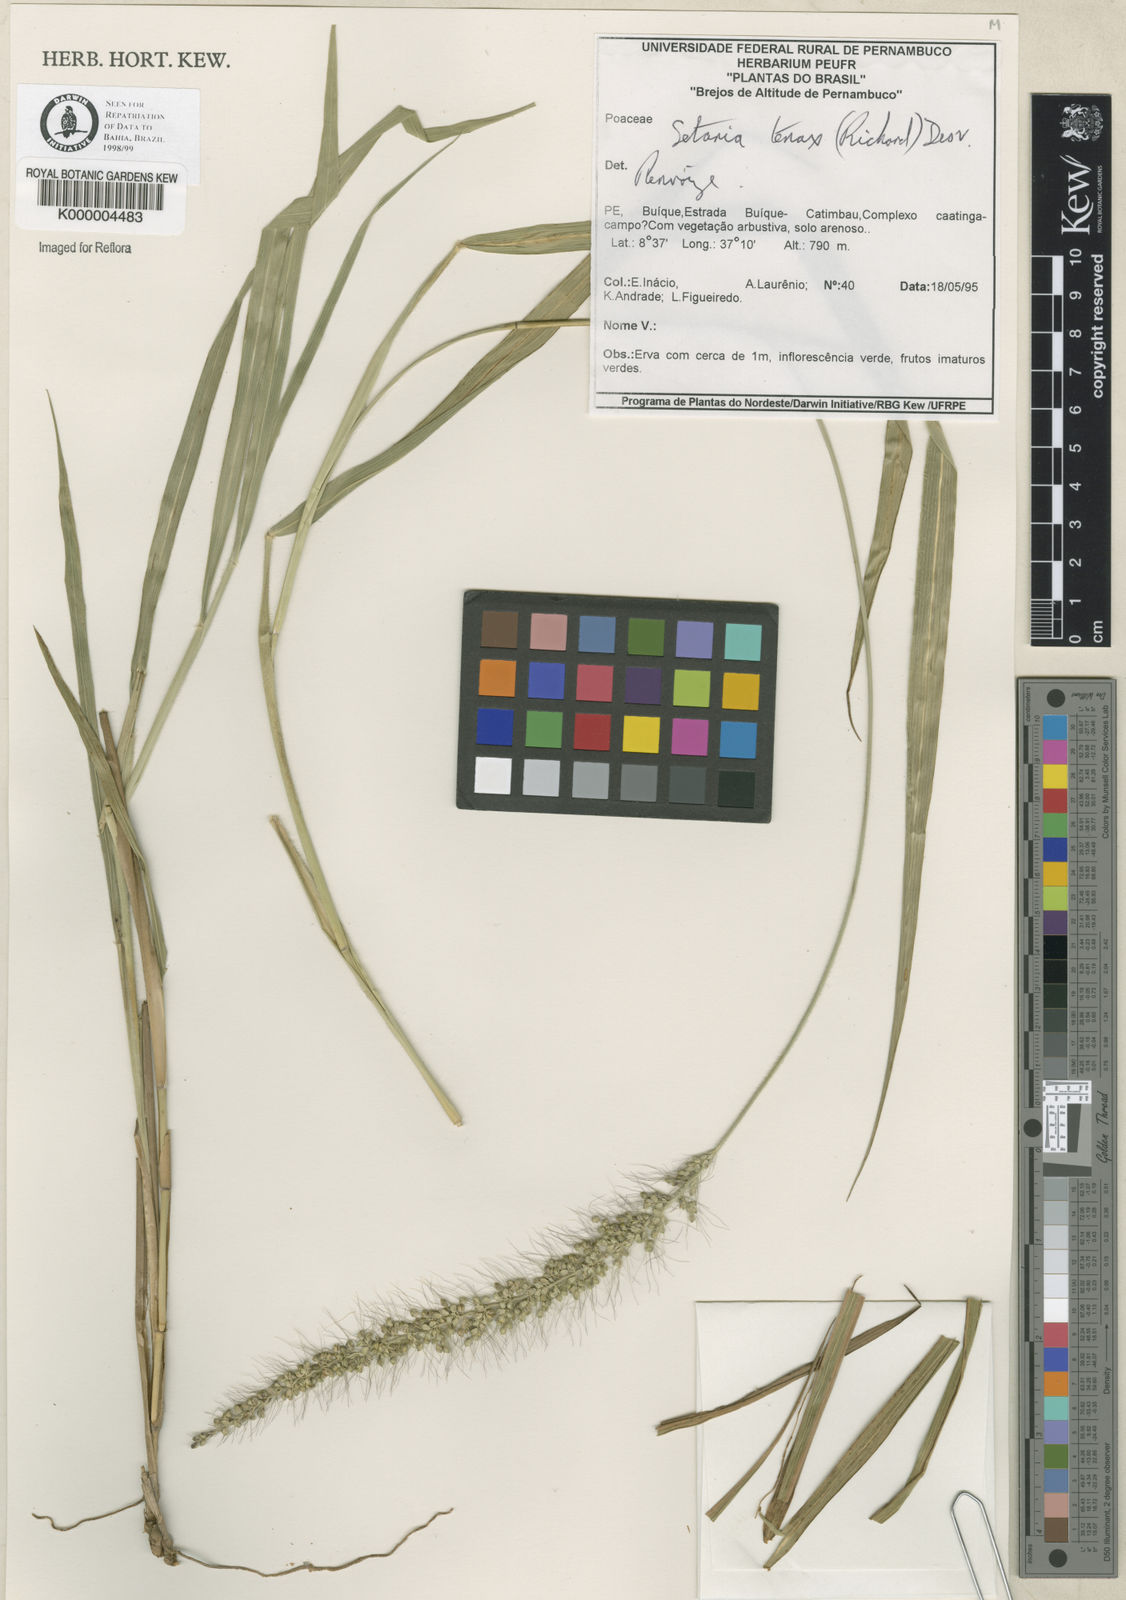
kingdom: Plantae
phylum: Tracheophyta
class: Liliopsida
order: Poales
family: Poaceae
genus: Setaria
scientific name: Setaria tenax
